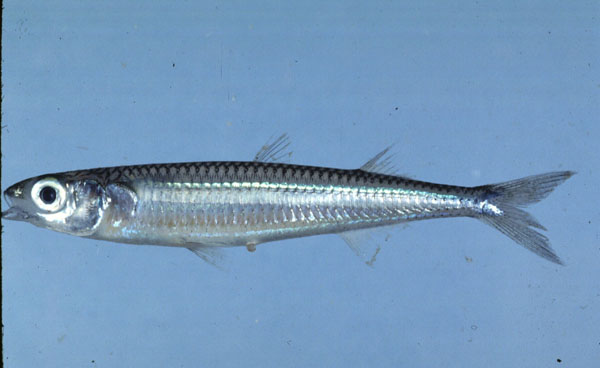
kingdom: Animalia
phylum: Chordata
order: Atheriniformes
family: Atherinidae
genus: Hypoatherina
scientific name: Hypoatherina temminckii
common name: Samoan silverside
